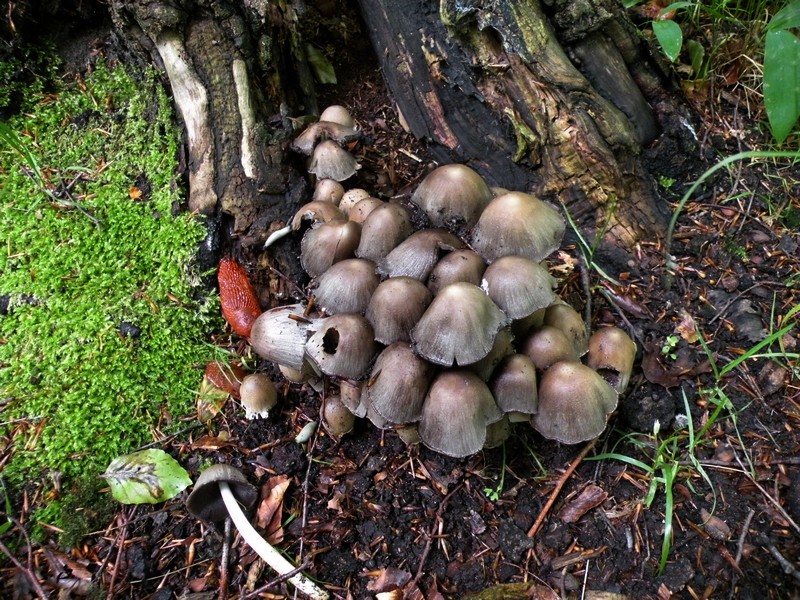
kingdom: Fungi
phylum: Basidiomycota
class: Agaricomycetes
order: Agaricales
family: Psathyrellaceae
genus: Coprinopsis
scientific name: Coprinopsis atramentaria
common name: almindelig blækhat
